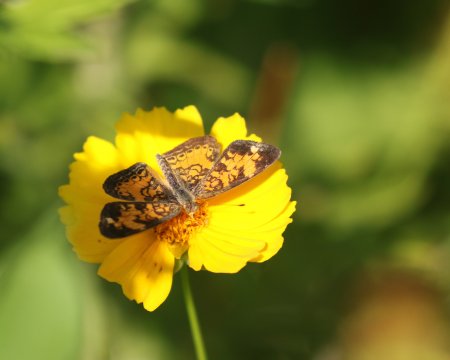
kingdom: Animalia
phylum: Arthropoda
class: Insecta
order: Lepidoptera
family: Nymphalidae
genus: Phyciodes
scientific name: Phyciodes tharos
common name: Pearl Crescent
